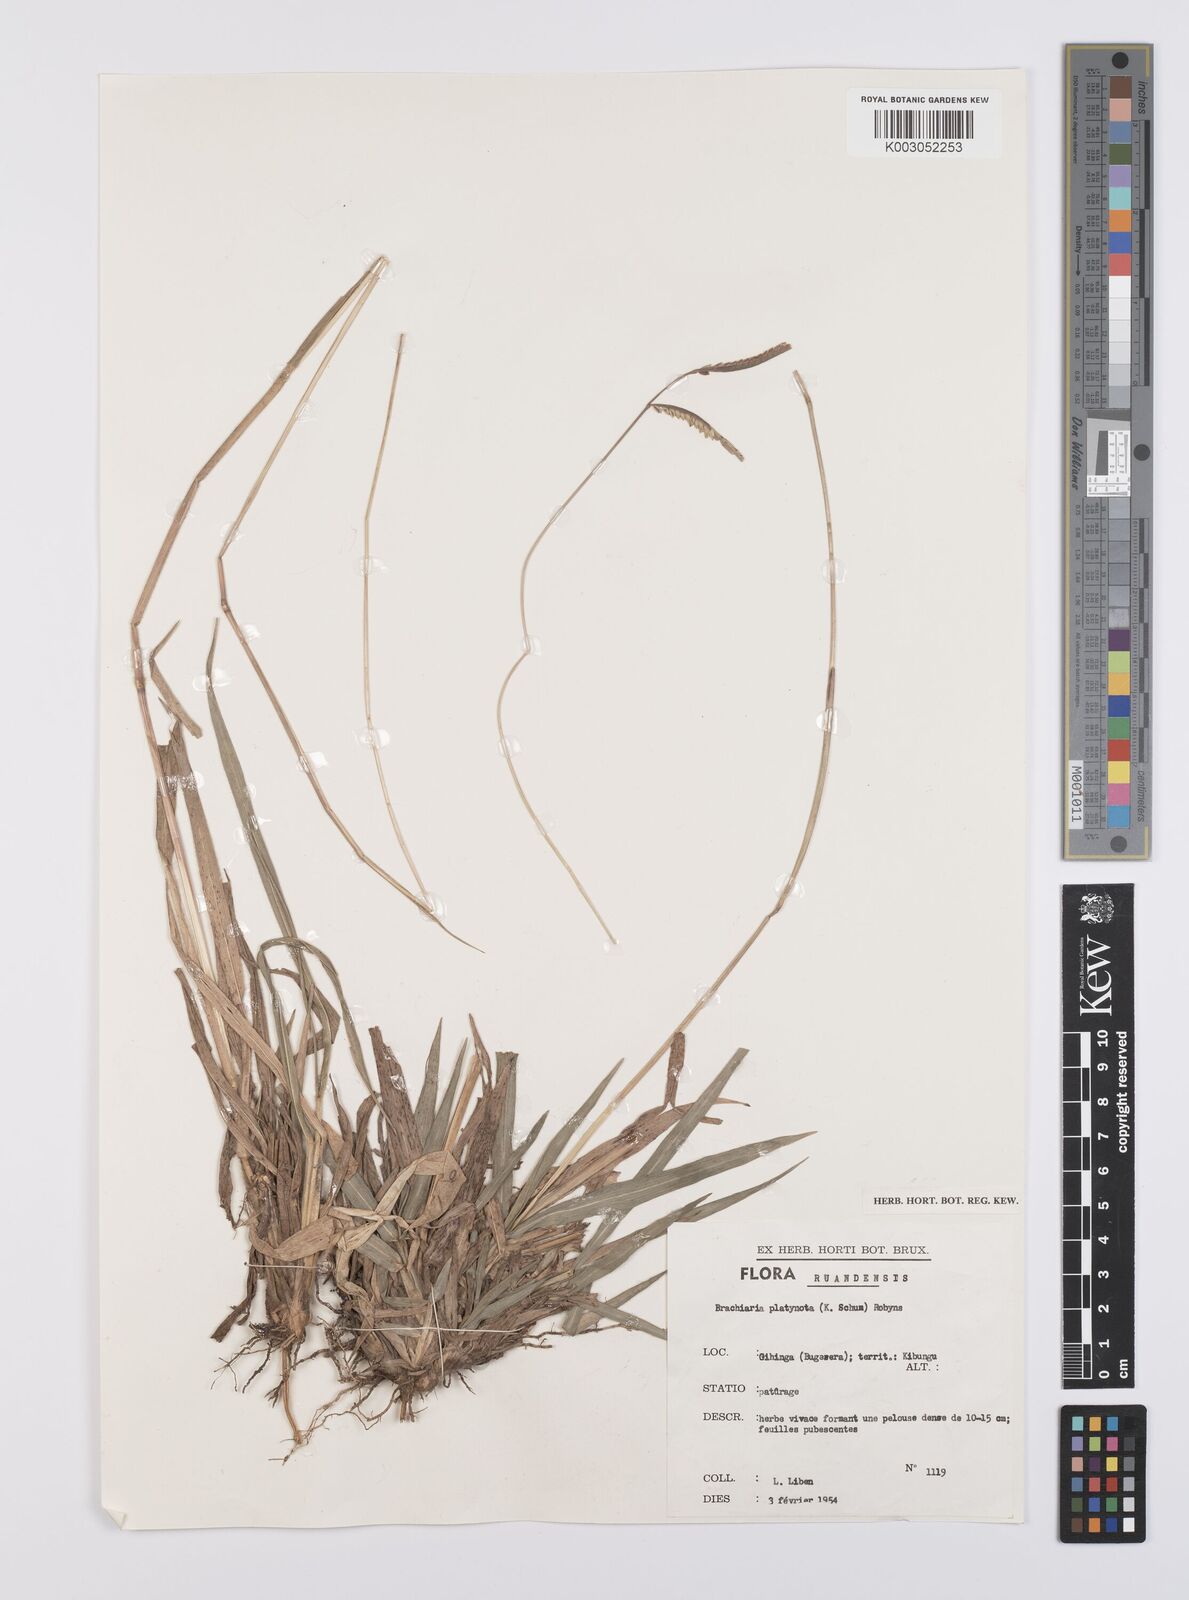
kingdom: Plantae
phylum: Tracheophyta
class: Liliopsida
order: Poales
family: Poaceae
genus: Urochloa
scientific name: Urochloa platynota
